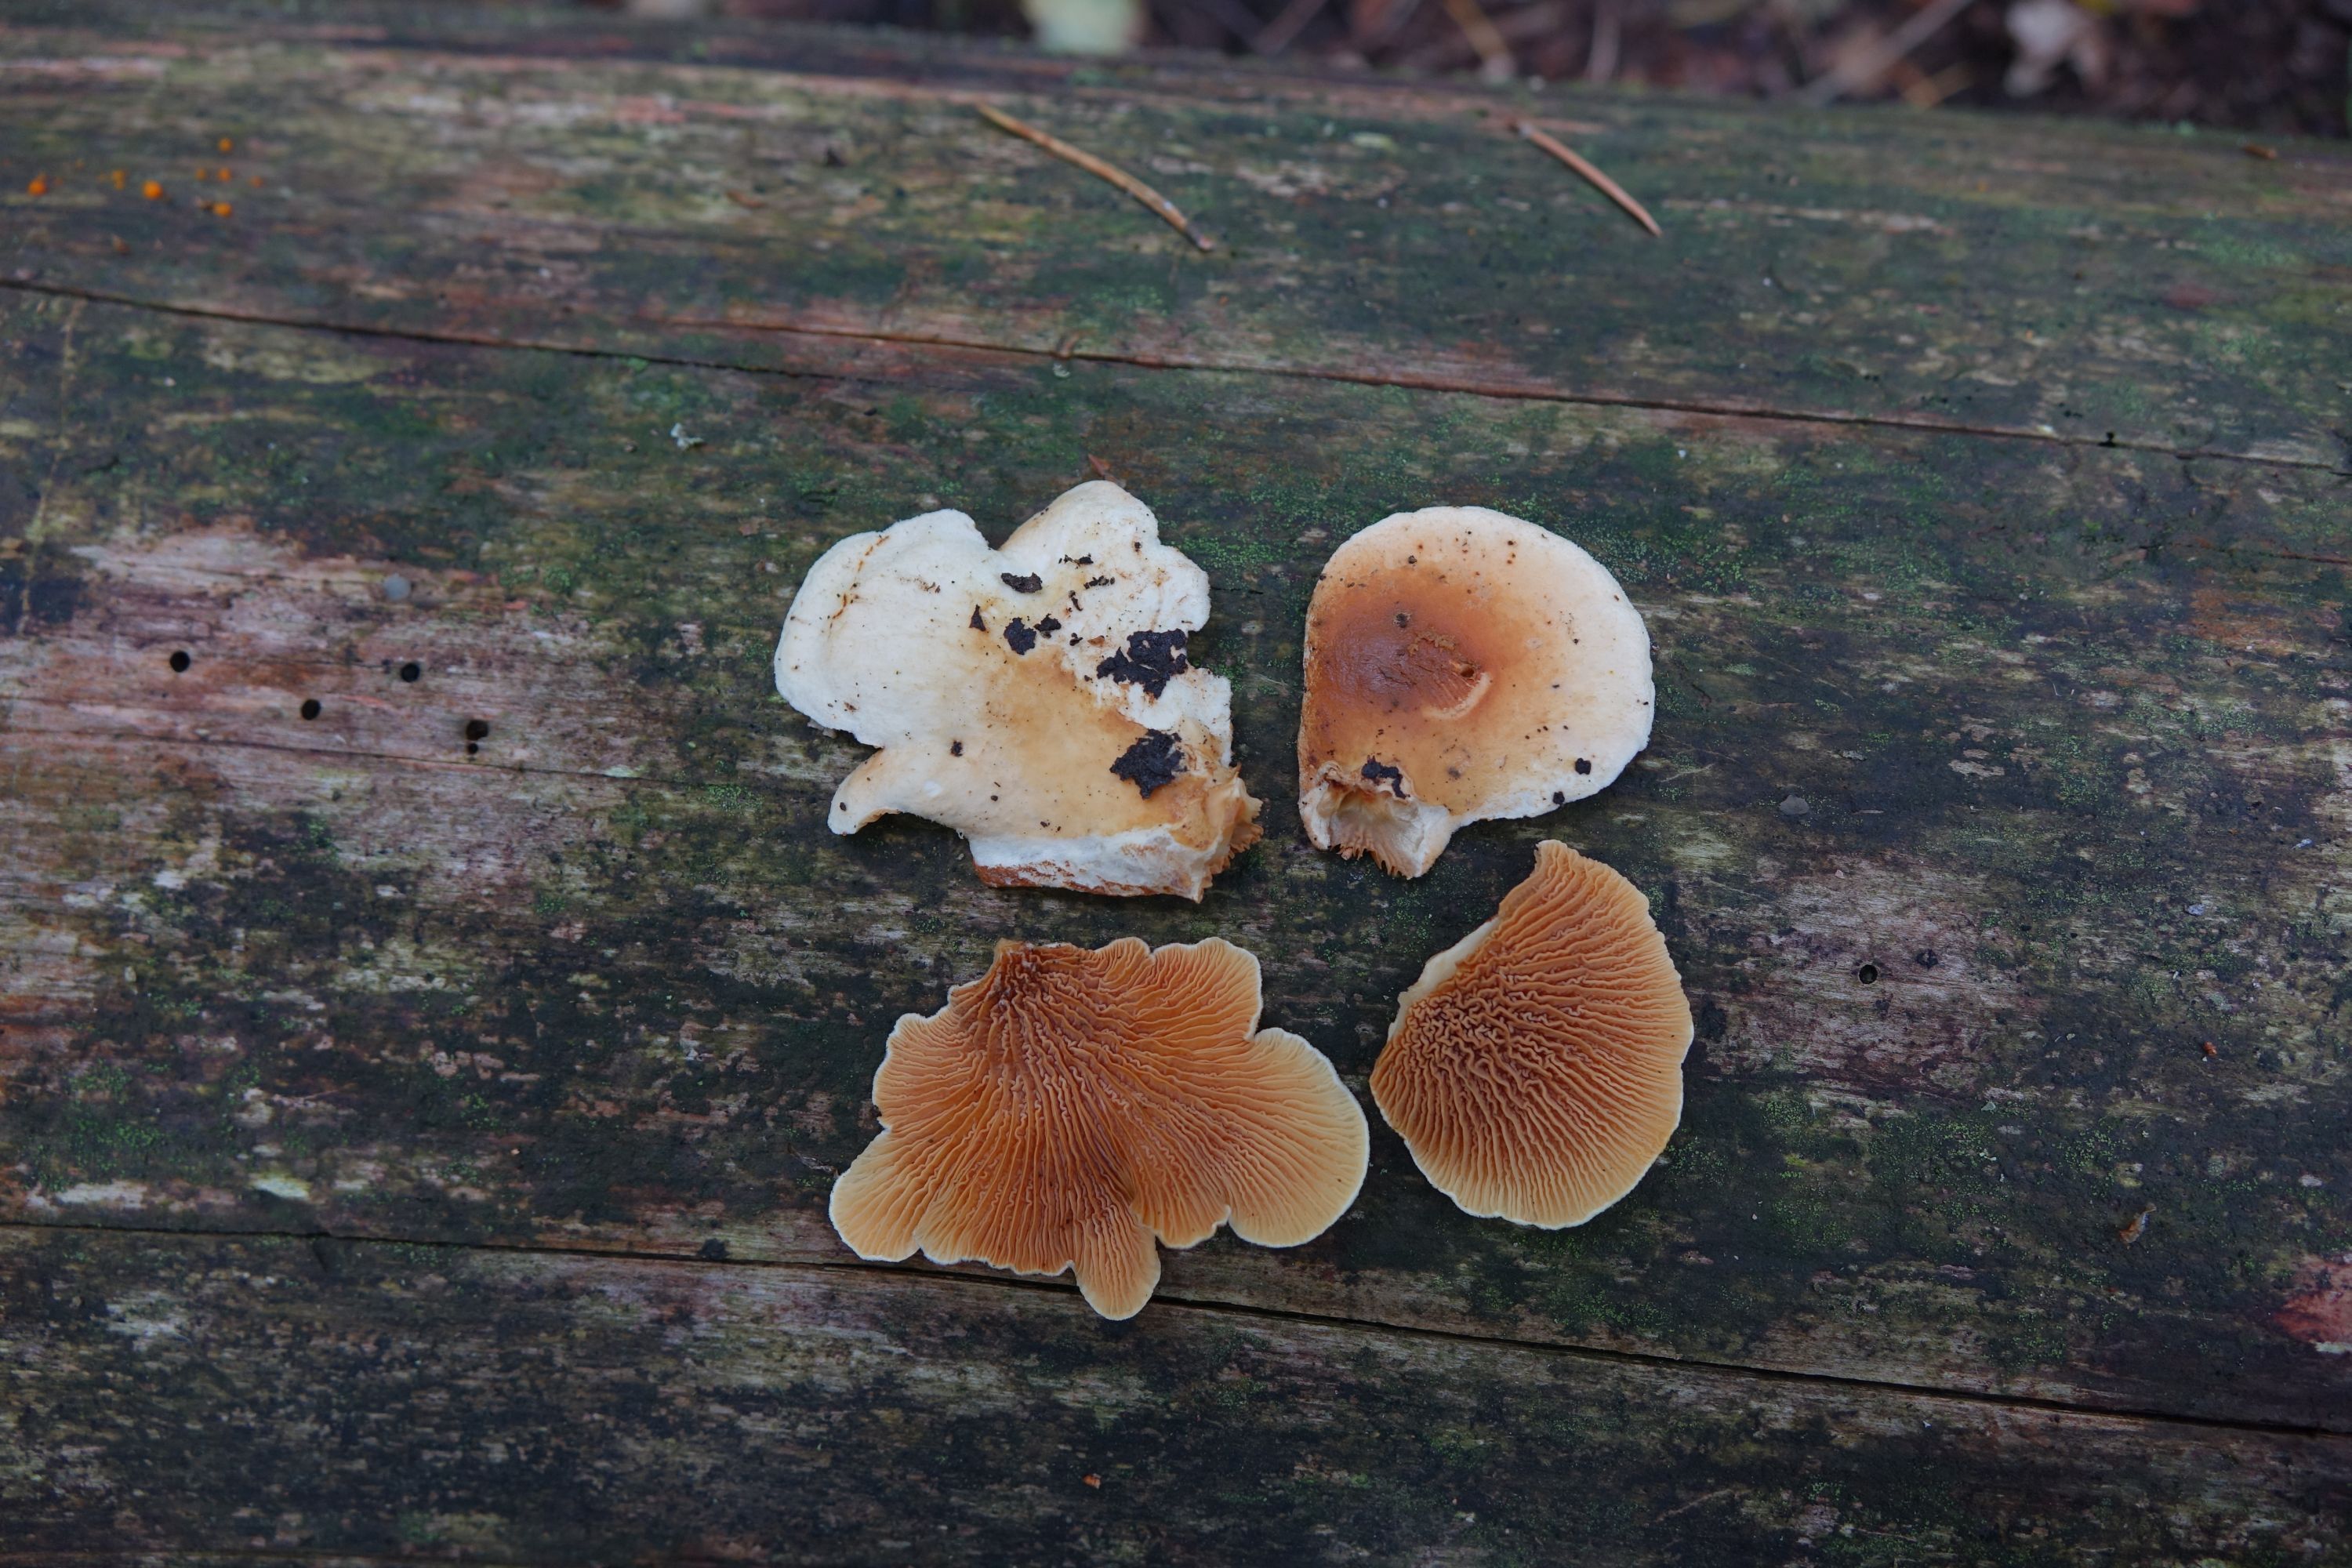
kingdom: Fungi
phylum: Basidiomycota
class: Agaricomycetes
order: Boletales
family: Tapinellaceae
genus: Tapinella
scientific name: Tapinella panuoides
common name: Oyster rollrim
